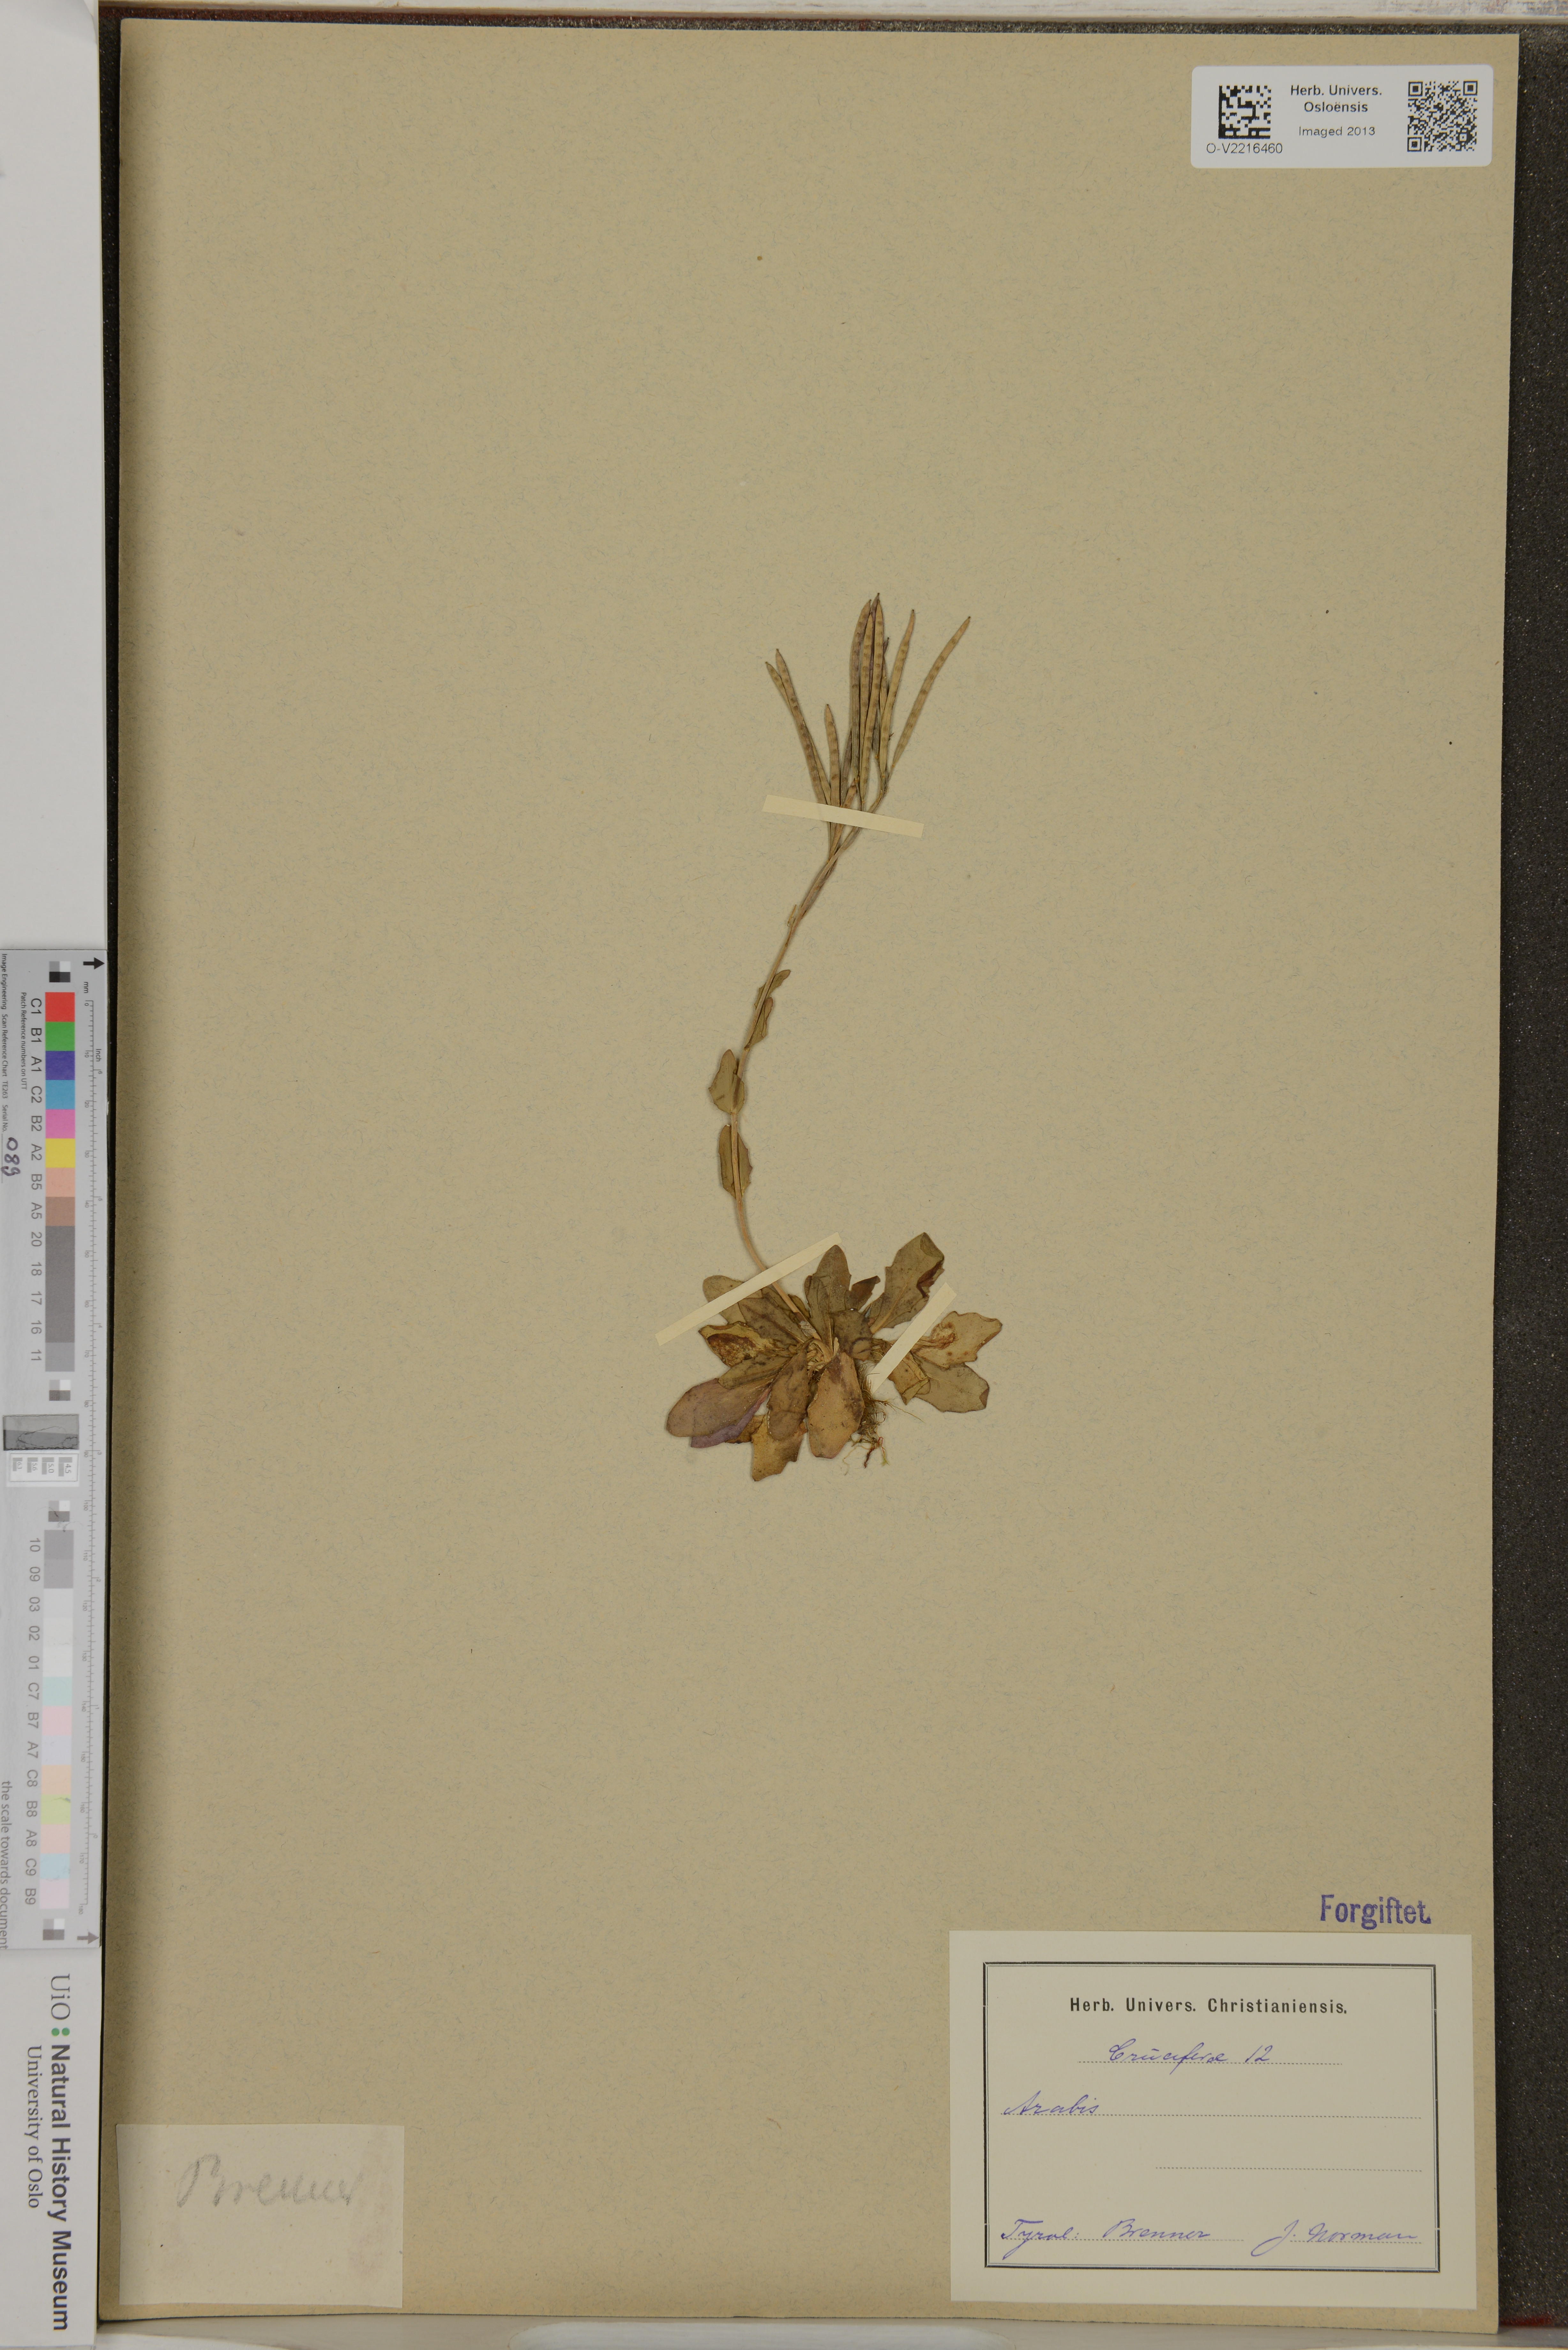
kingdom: Plantae
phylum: Tracheophyta
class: Magnoliopsida
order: Brassicales
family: Brassicaceae
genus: Arabis
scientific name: Arabis
